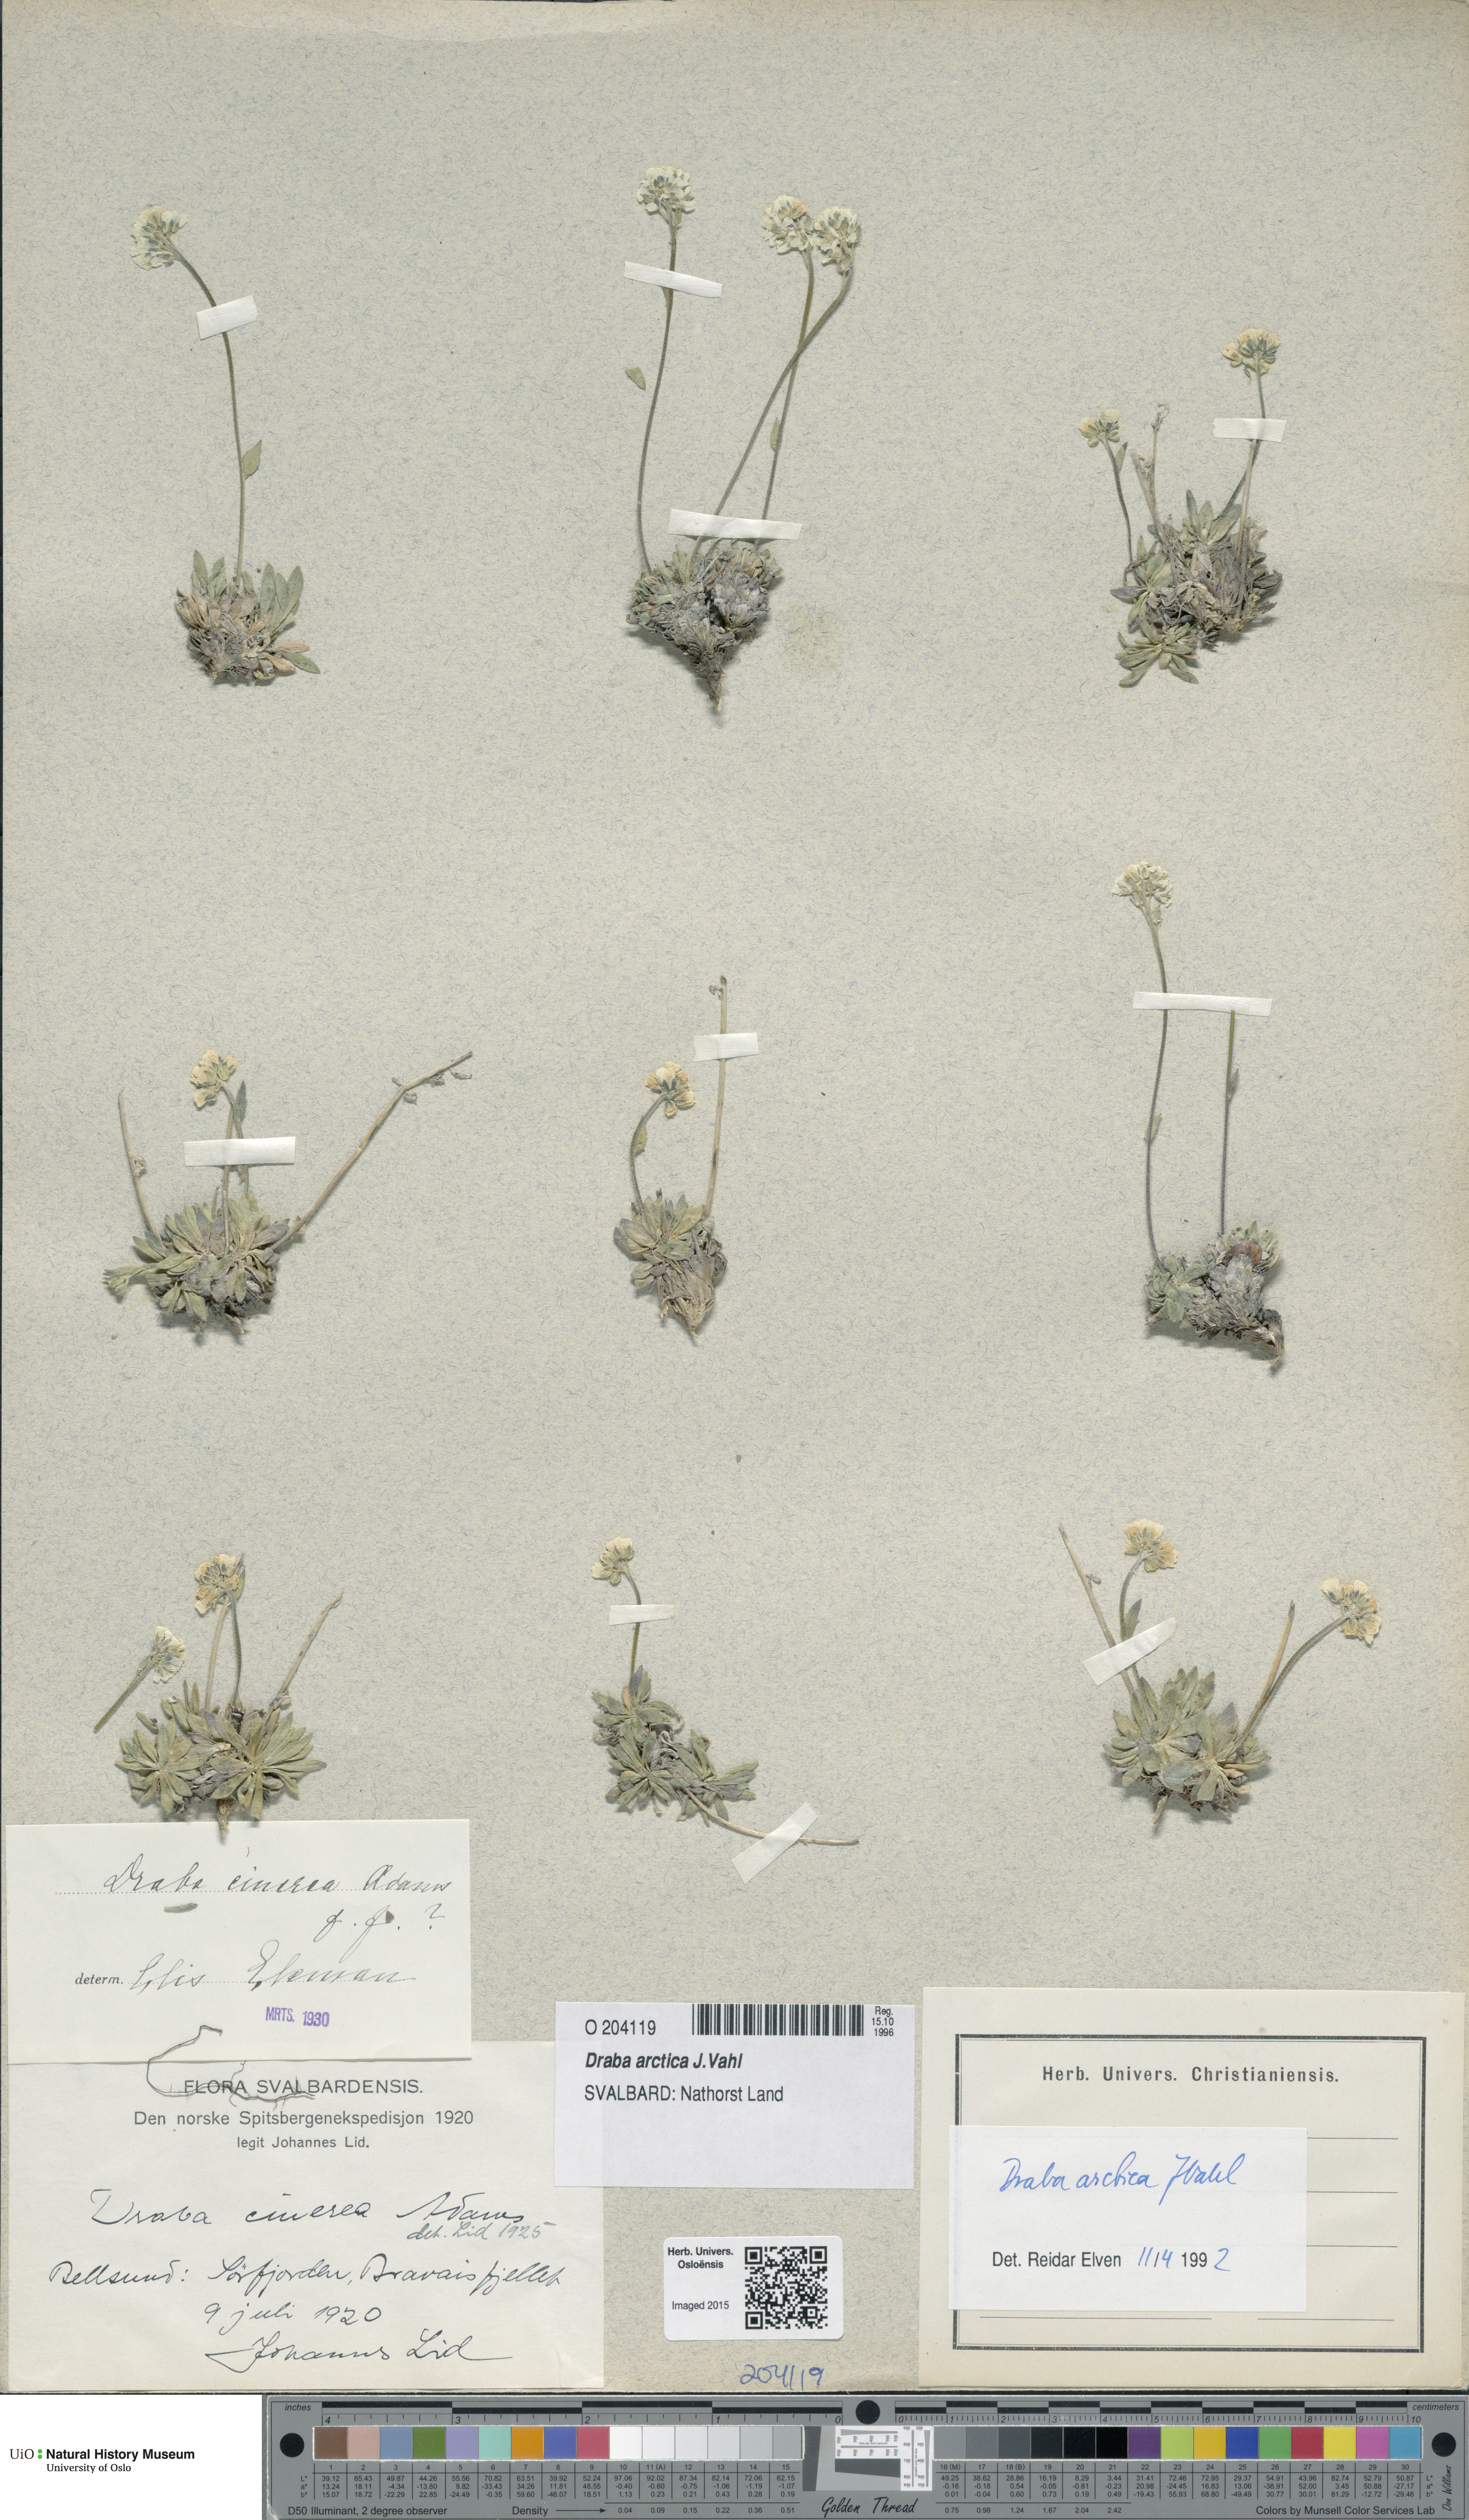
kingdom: Plantae
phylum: Tracheophyta
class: Magnoliopsida
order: Brassicales
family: Brassicaceae
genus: Draba
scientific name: Draba arctica
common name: Arctic draba
